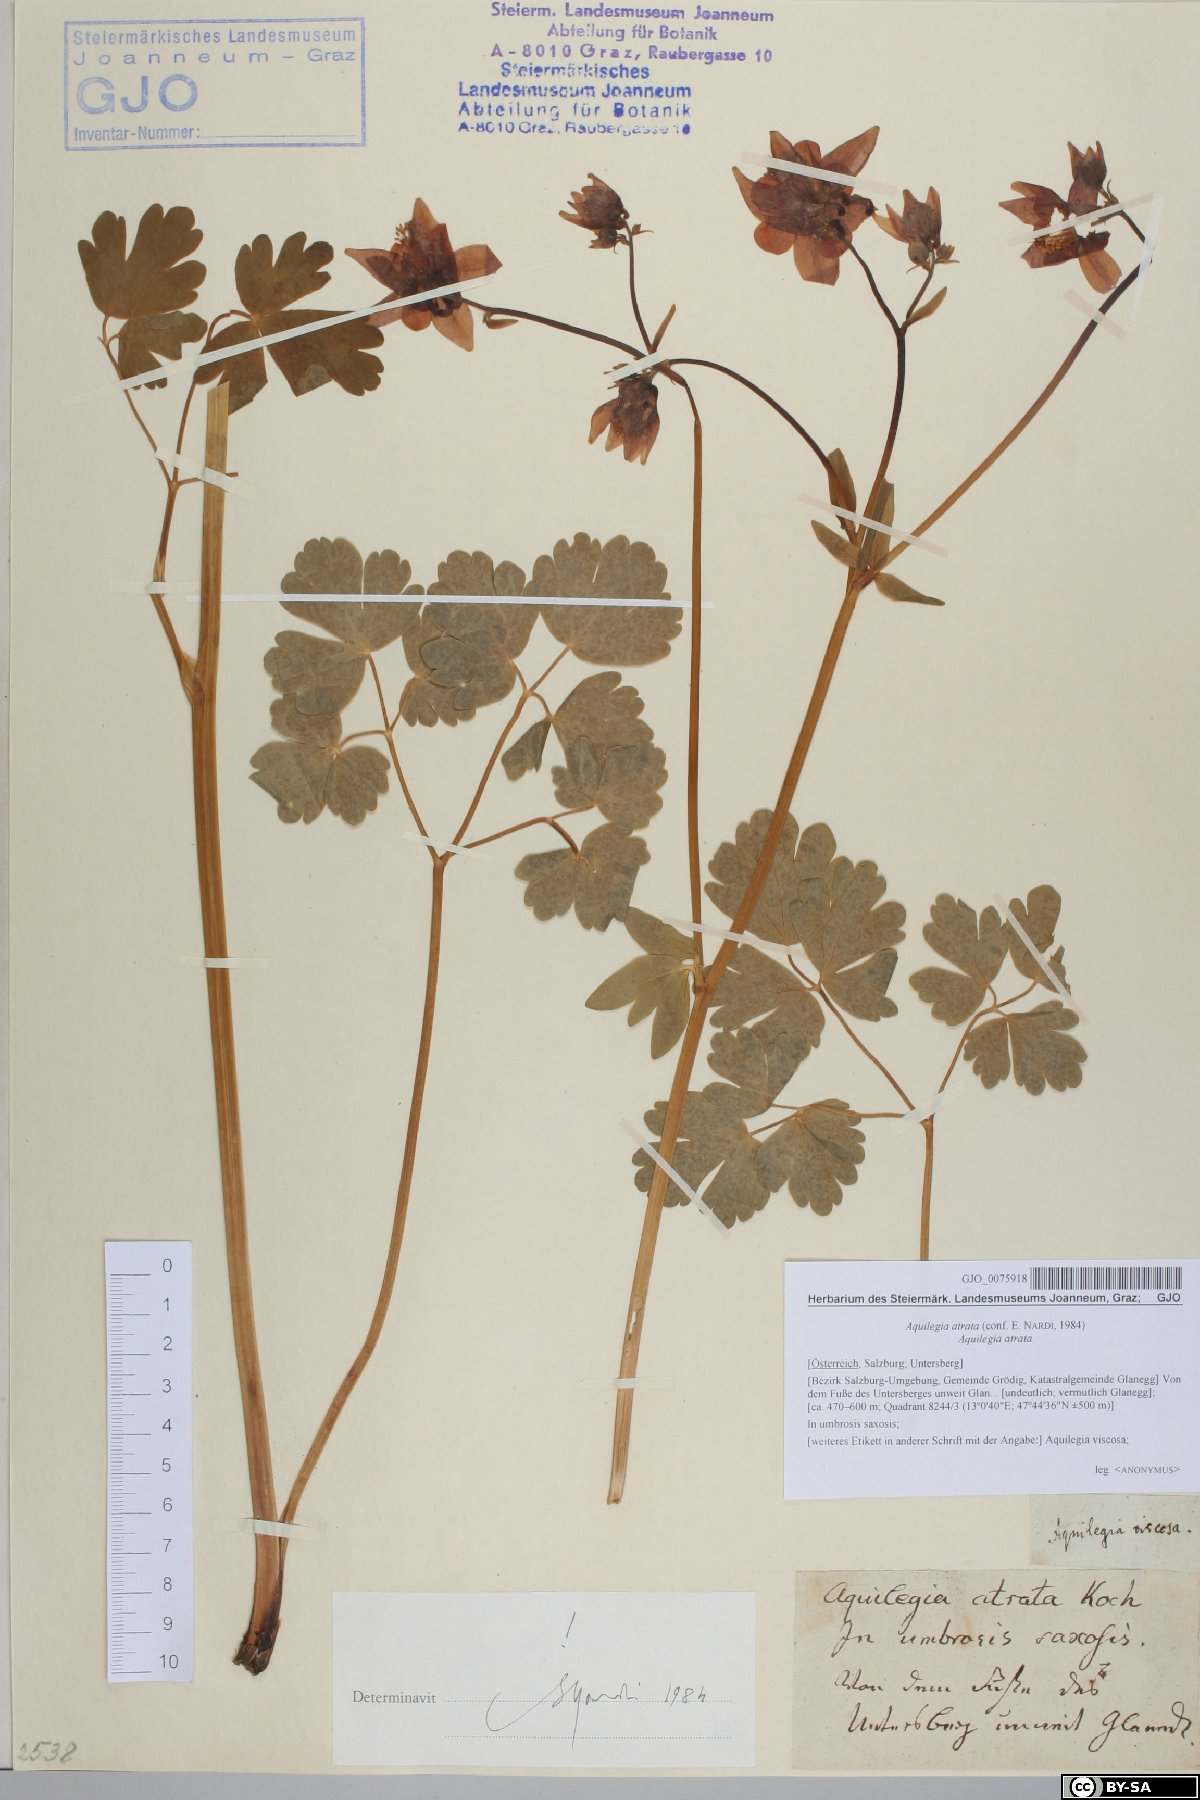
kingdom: Plantae
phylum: Tracheophyta
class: Magnoliopsida
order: Ranunculales
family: Ranunculaceae
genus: Aquilegia
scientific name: Aquilegia atrata
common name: Dark columbine
